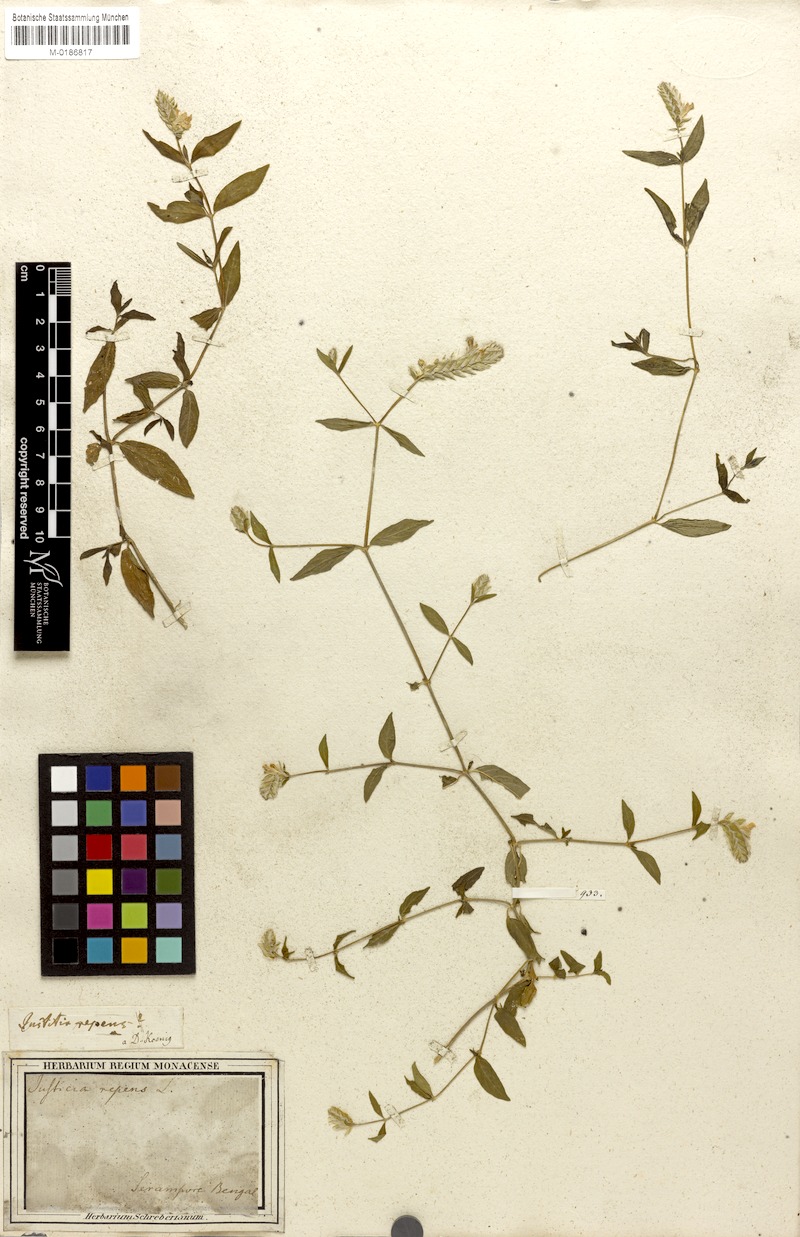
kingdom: Plantae
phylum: Tracheophyta
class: Magnoliopsida
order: Lamiales
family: Acanthaceae
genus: Rungia
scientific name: Rungia repens
